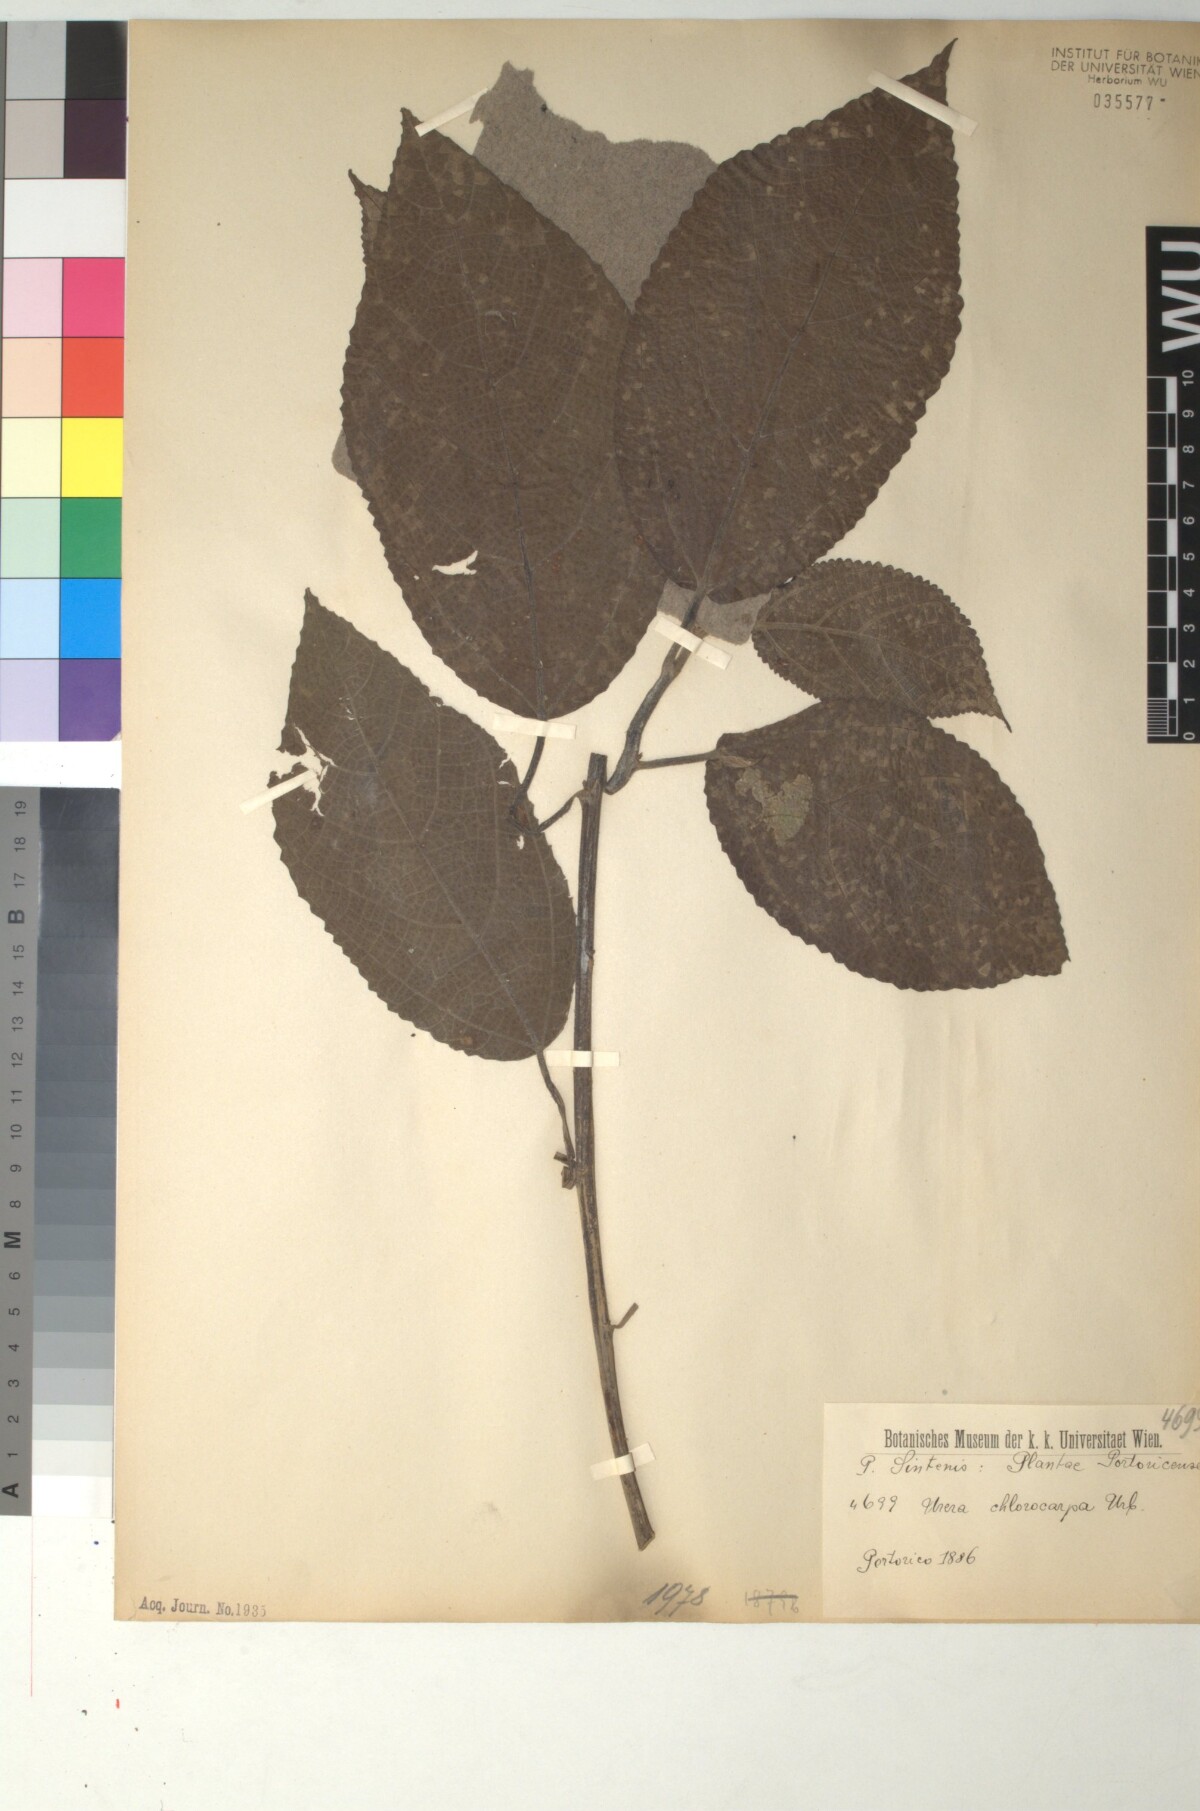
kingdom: Plantae
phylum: Tracheophyta
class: Magnoliopsida
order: Rosales
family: Urticaceae
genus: Urera
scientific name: Urera chlorocarpa
